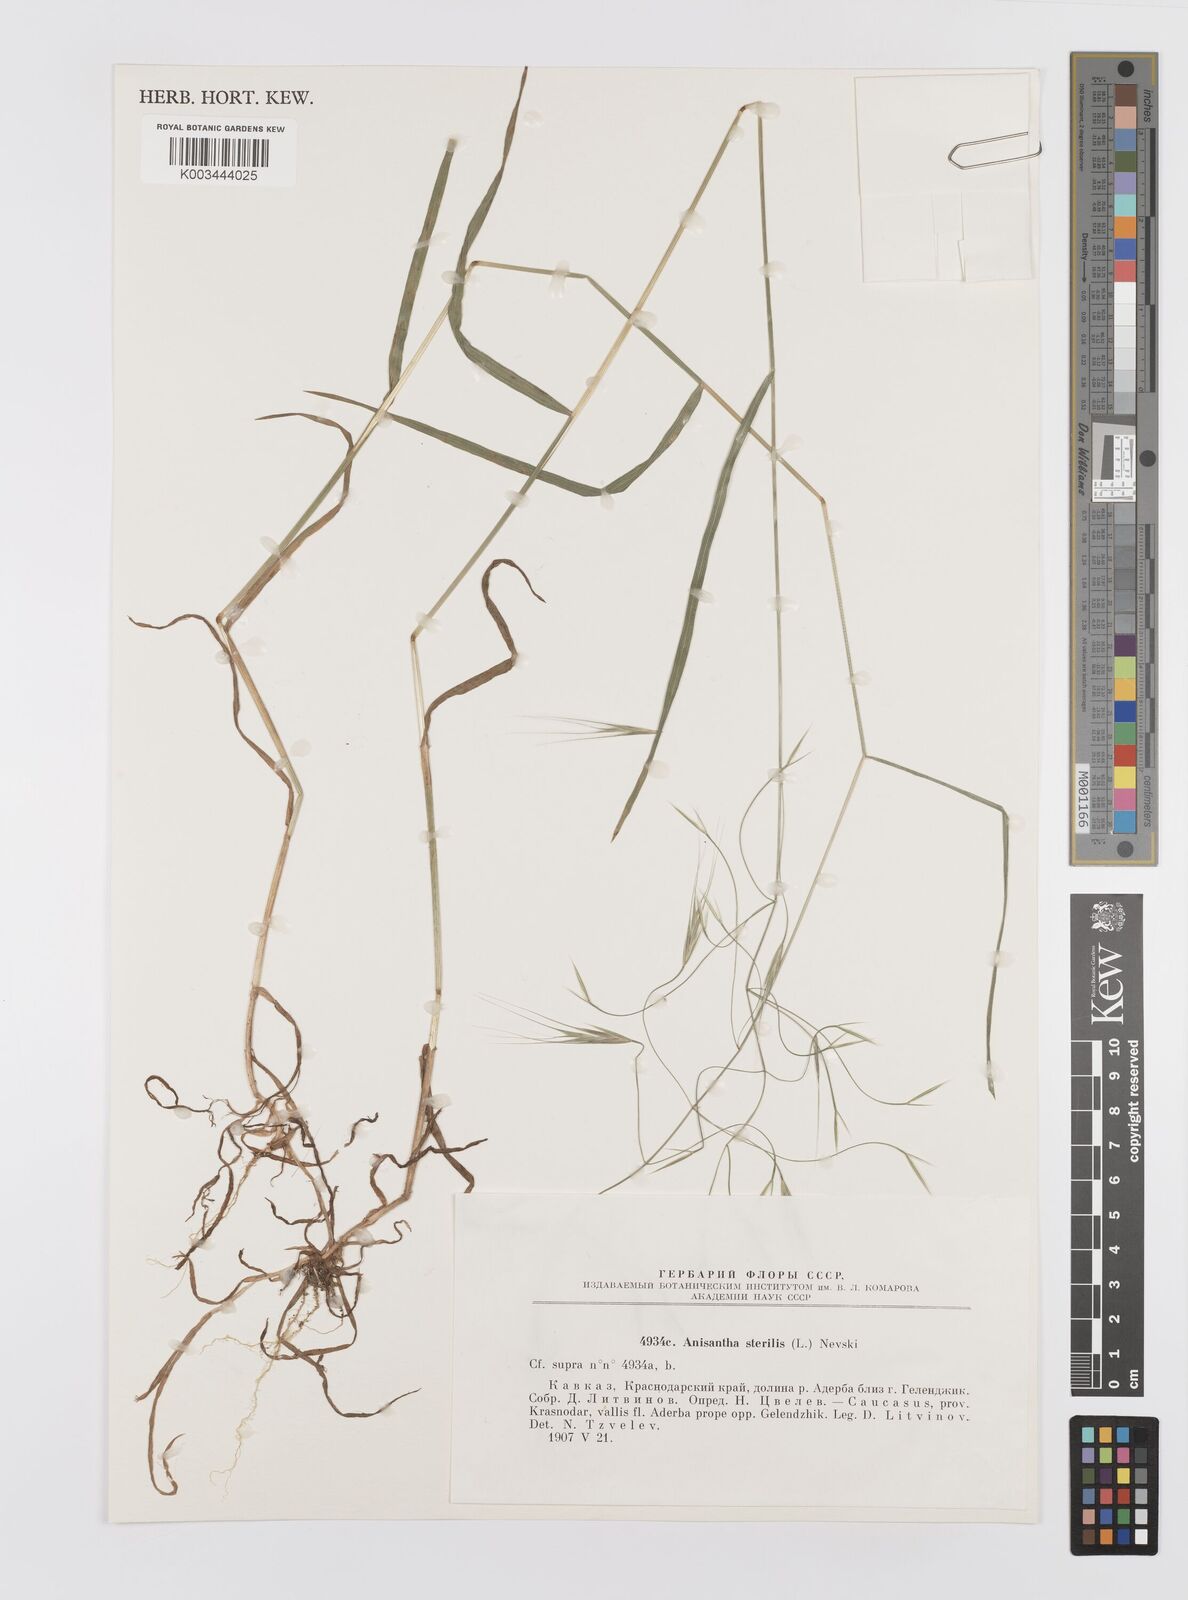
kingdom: Plantae
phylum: Tracheophyta
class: Liliopsida
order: Poales
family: Poaceae
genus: Bromus
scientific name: Bromus sterilis
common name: Poverty brome
